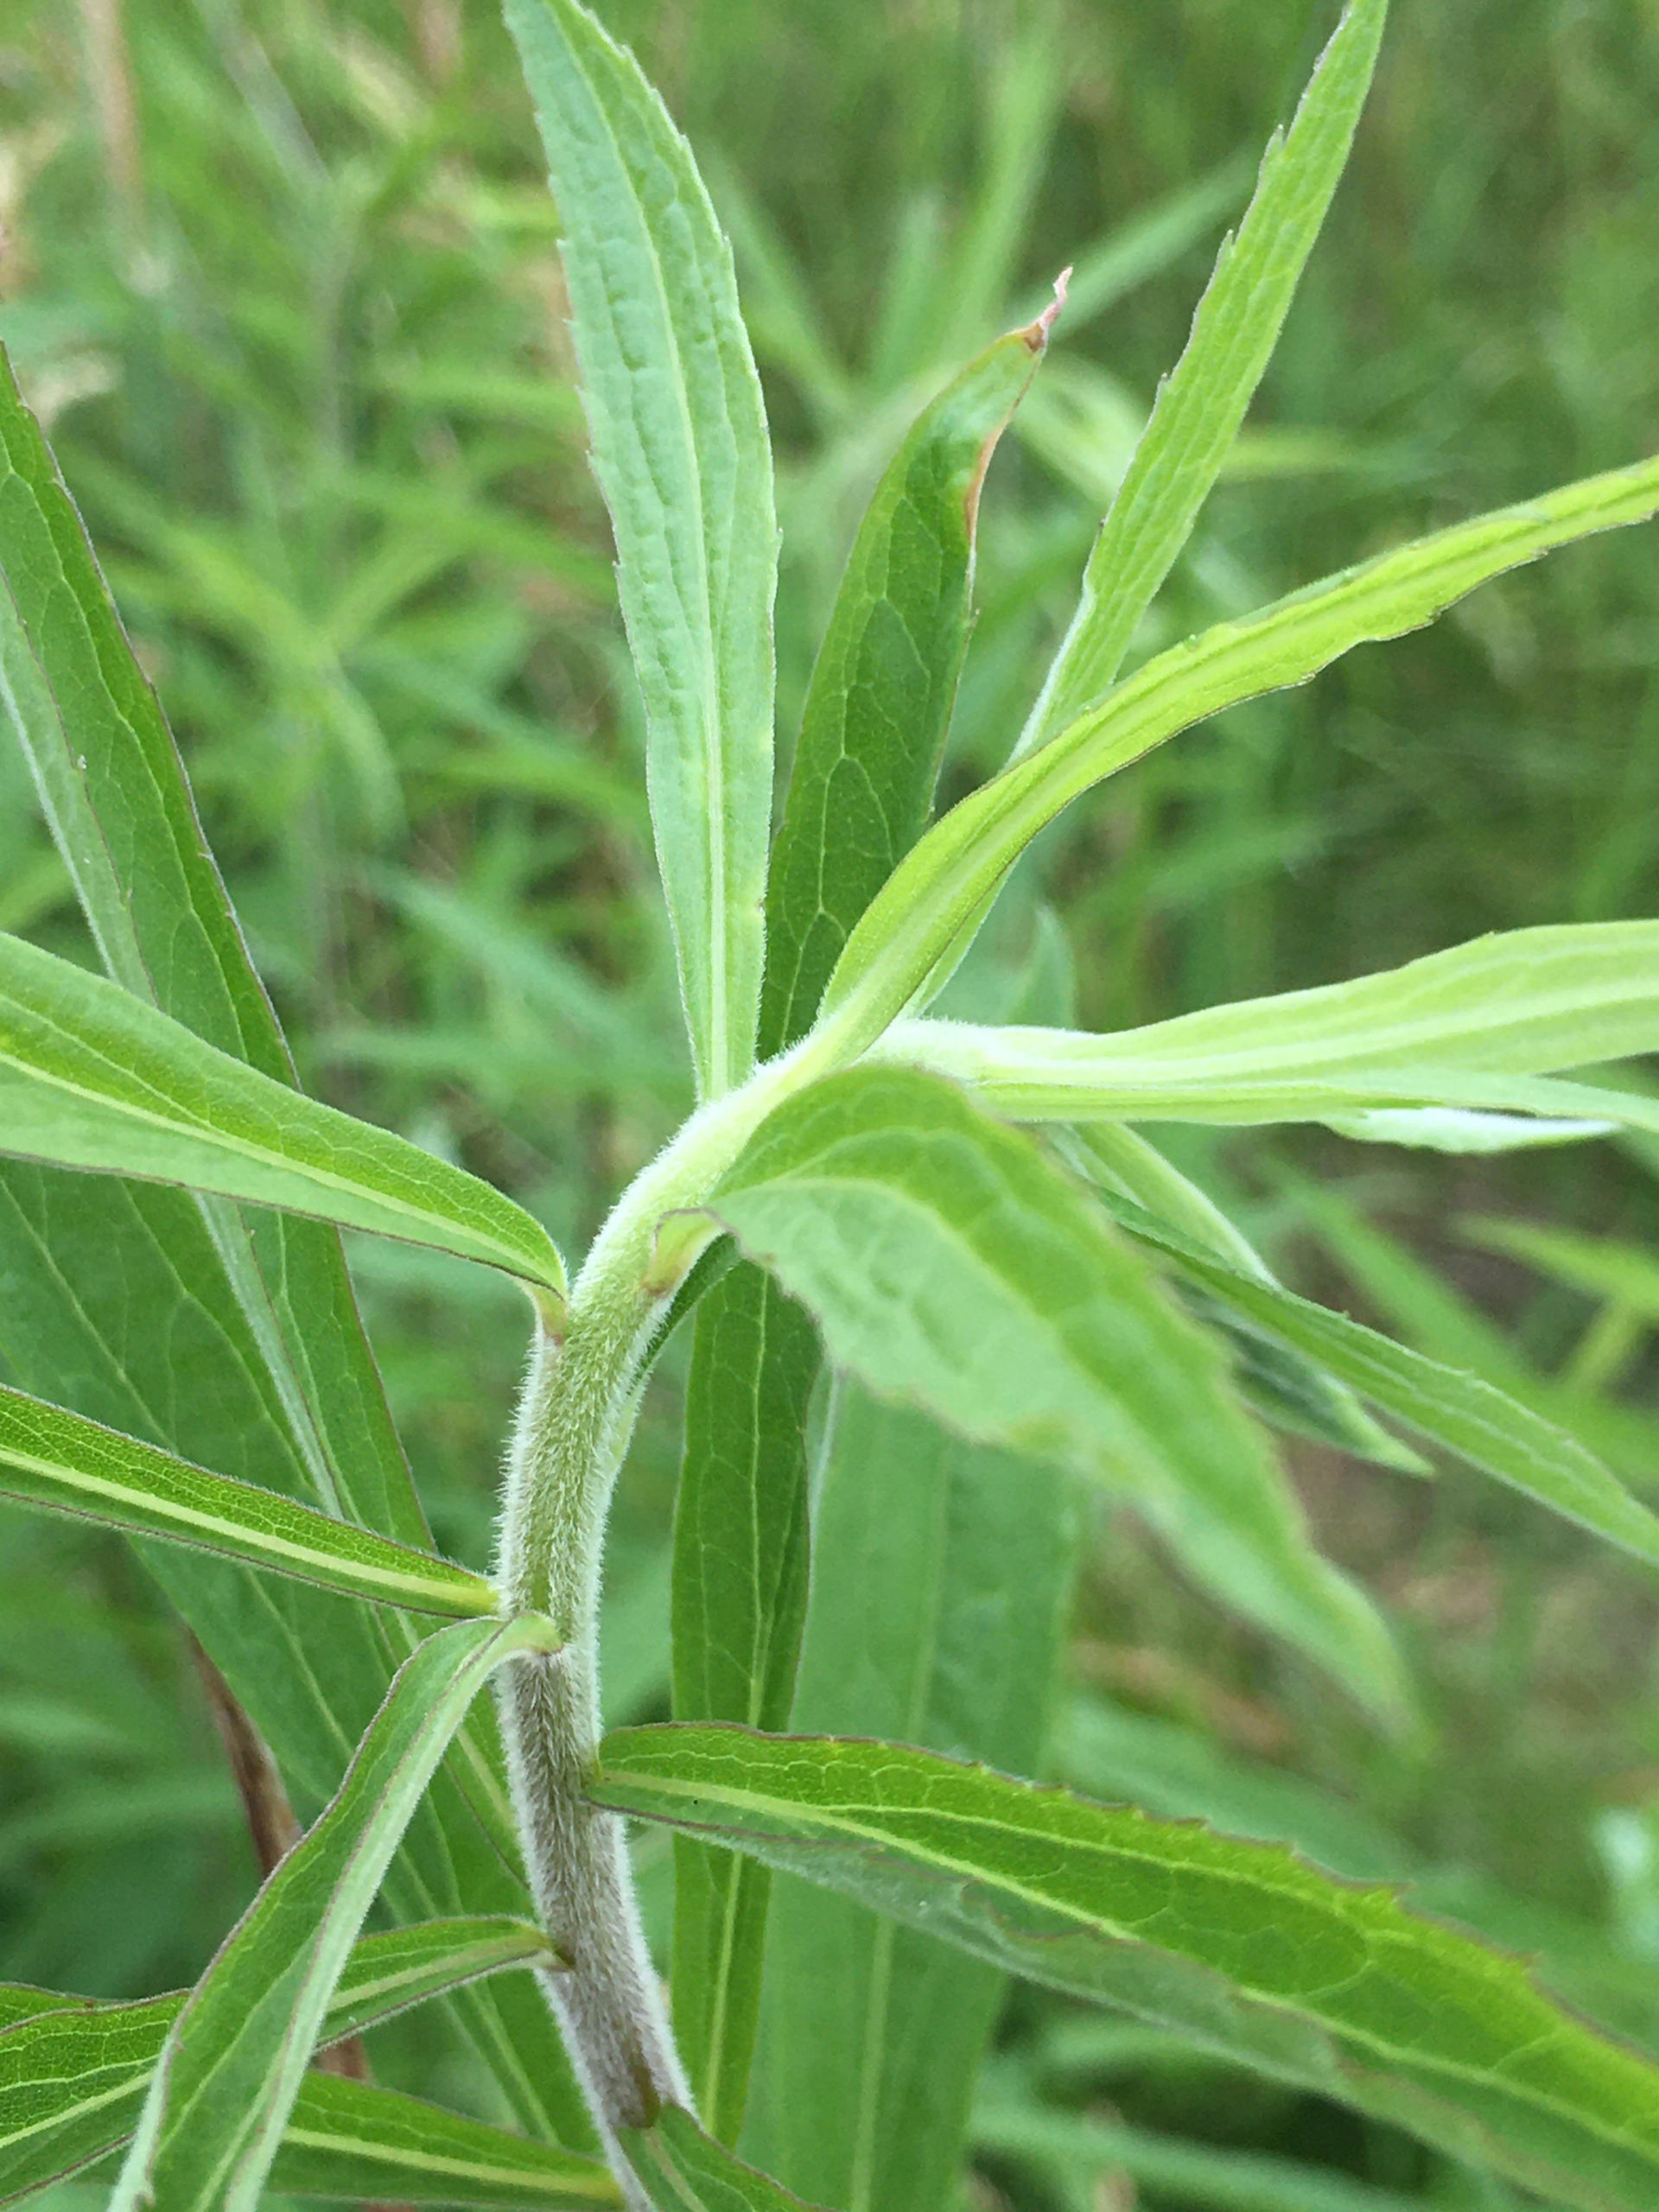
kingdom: Plantae
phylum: Tracheophyta
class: Magnoliopsida
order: Asterales
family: Asteraceae
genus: Solidago
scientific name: Solidago canadensis
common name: Kanadisk gyldenris
